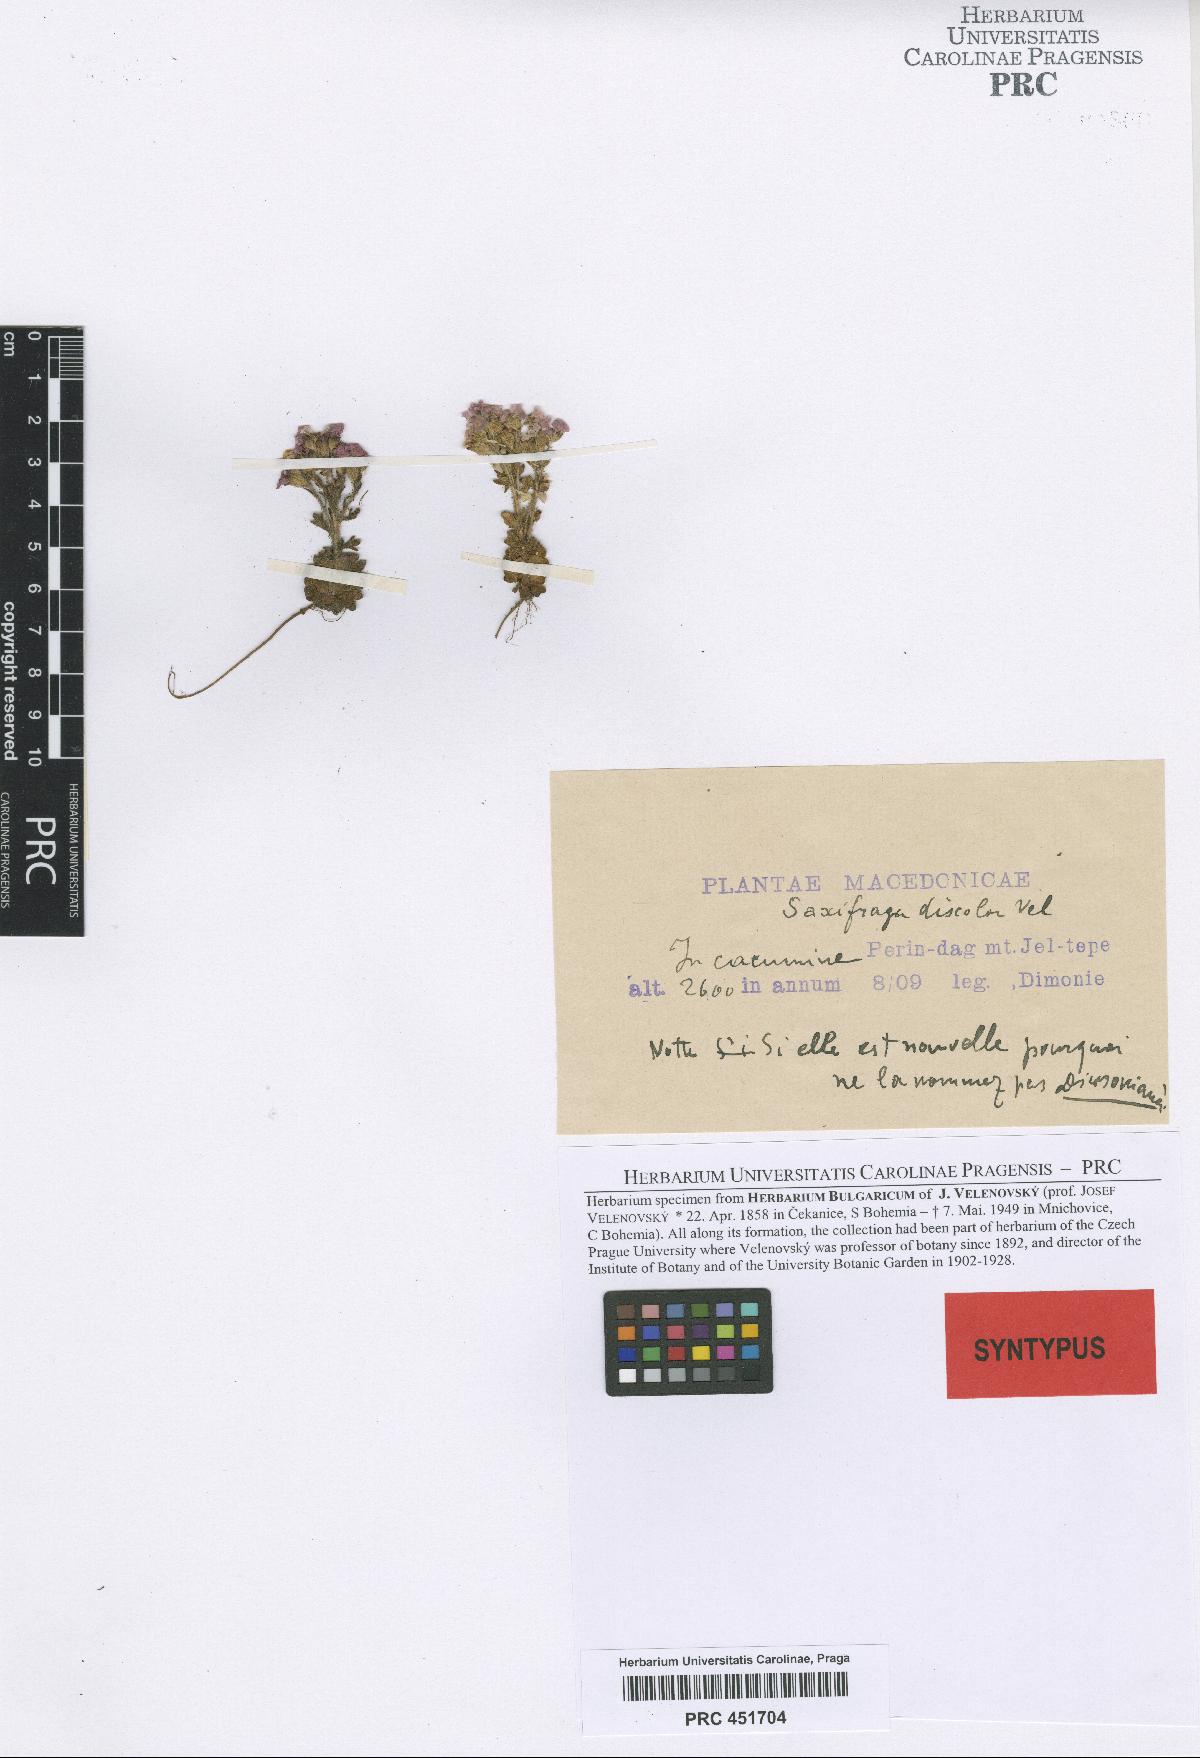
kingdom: Plantae
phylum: Tracheophyta
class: Magnoliopsida
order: Saxifragales
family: Saxifragaceae
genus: Saxifraga
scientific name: Saxifraga adscendens
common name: Ascending saxifrage
